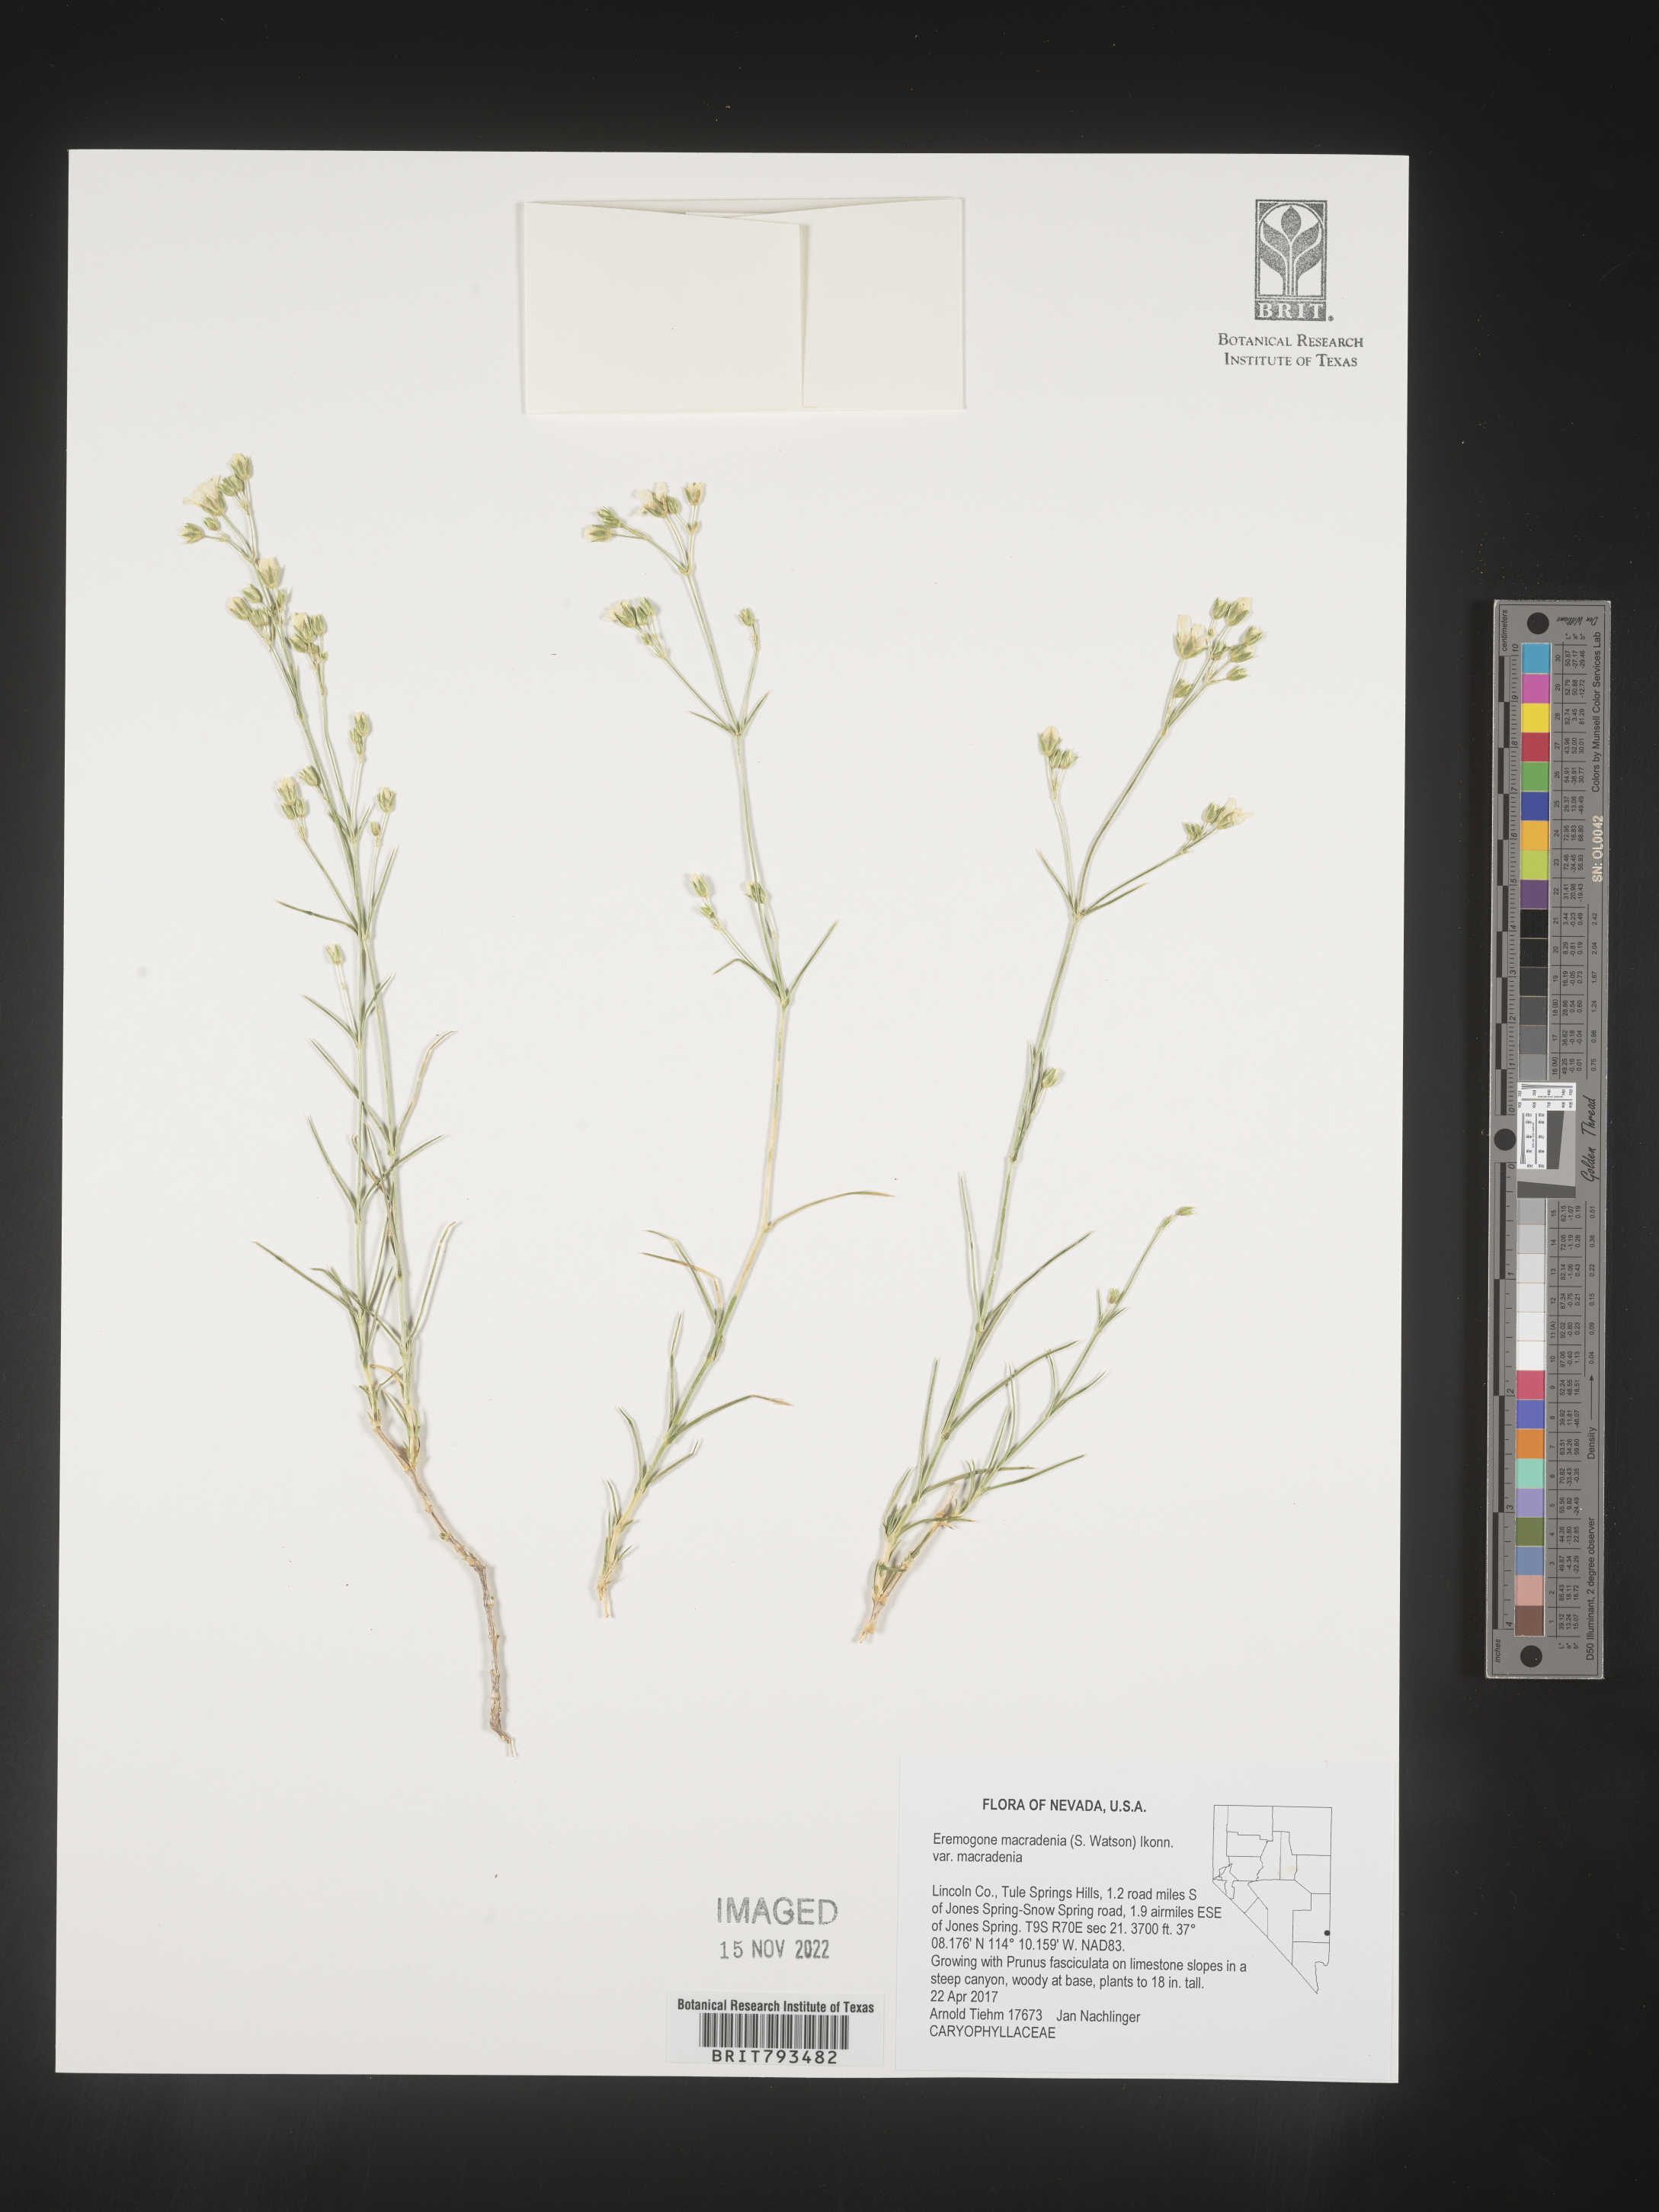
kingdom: Plantae
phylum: Tracheophyta
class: Magnoliopsida
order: Caryophyllales
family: Caryophyllaceae
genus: Eremogone
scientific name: Eremogone macradenia
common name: Mohave sandwort
